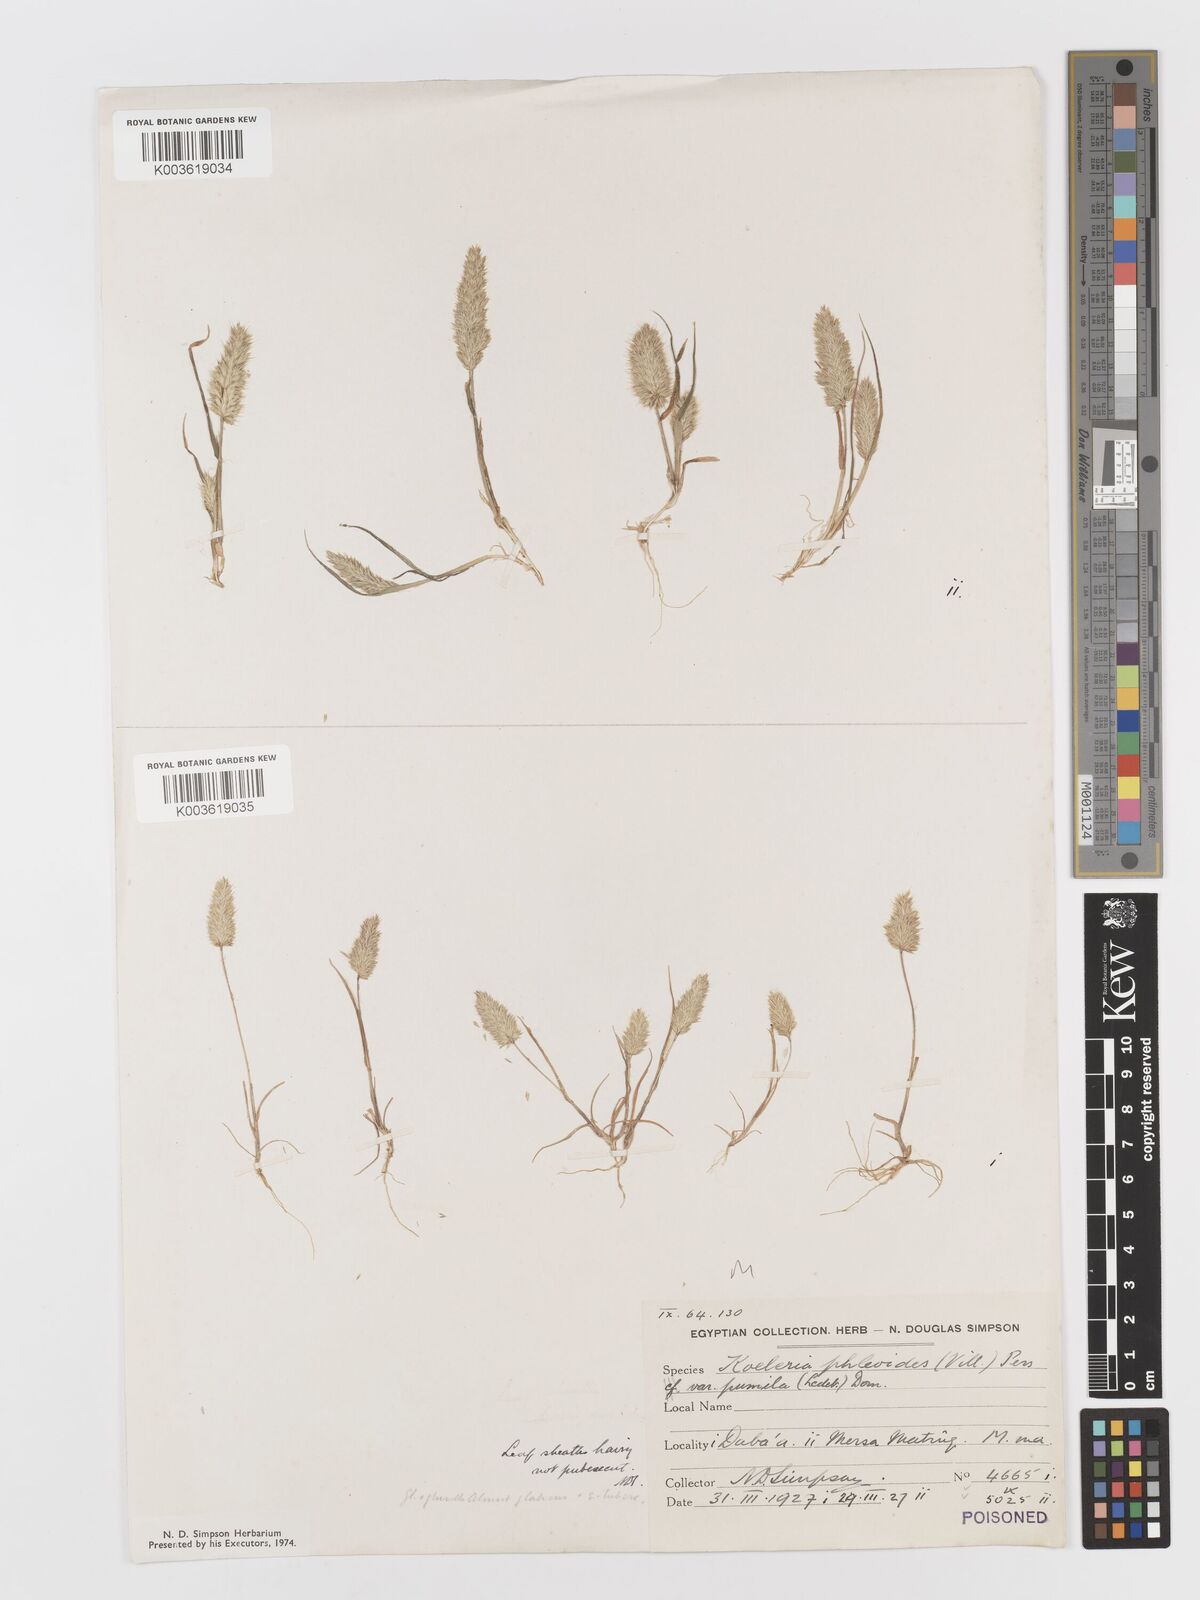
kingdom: Plantae
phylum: Tracheophyta
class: Liliopsida
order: Poales
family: Poaceae
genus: Rostraria
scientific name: Rostraria cristata
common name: Mediterranean hair-grass
